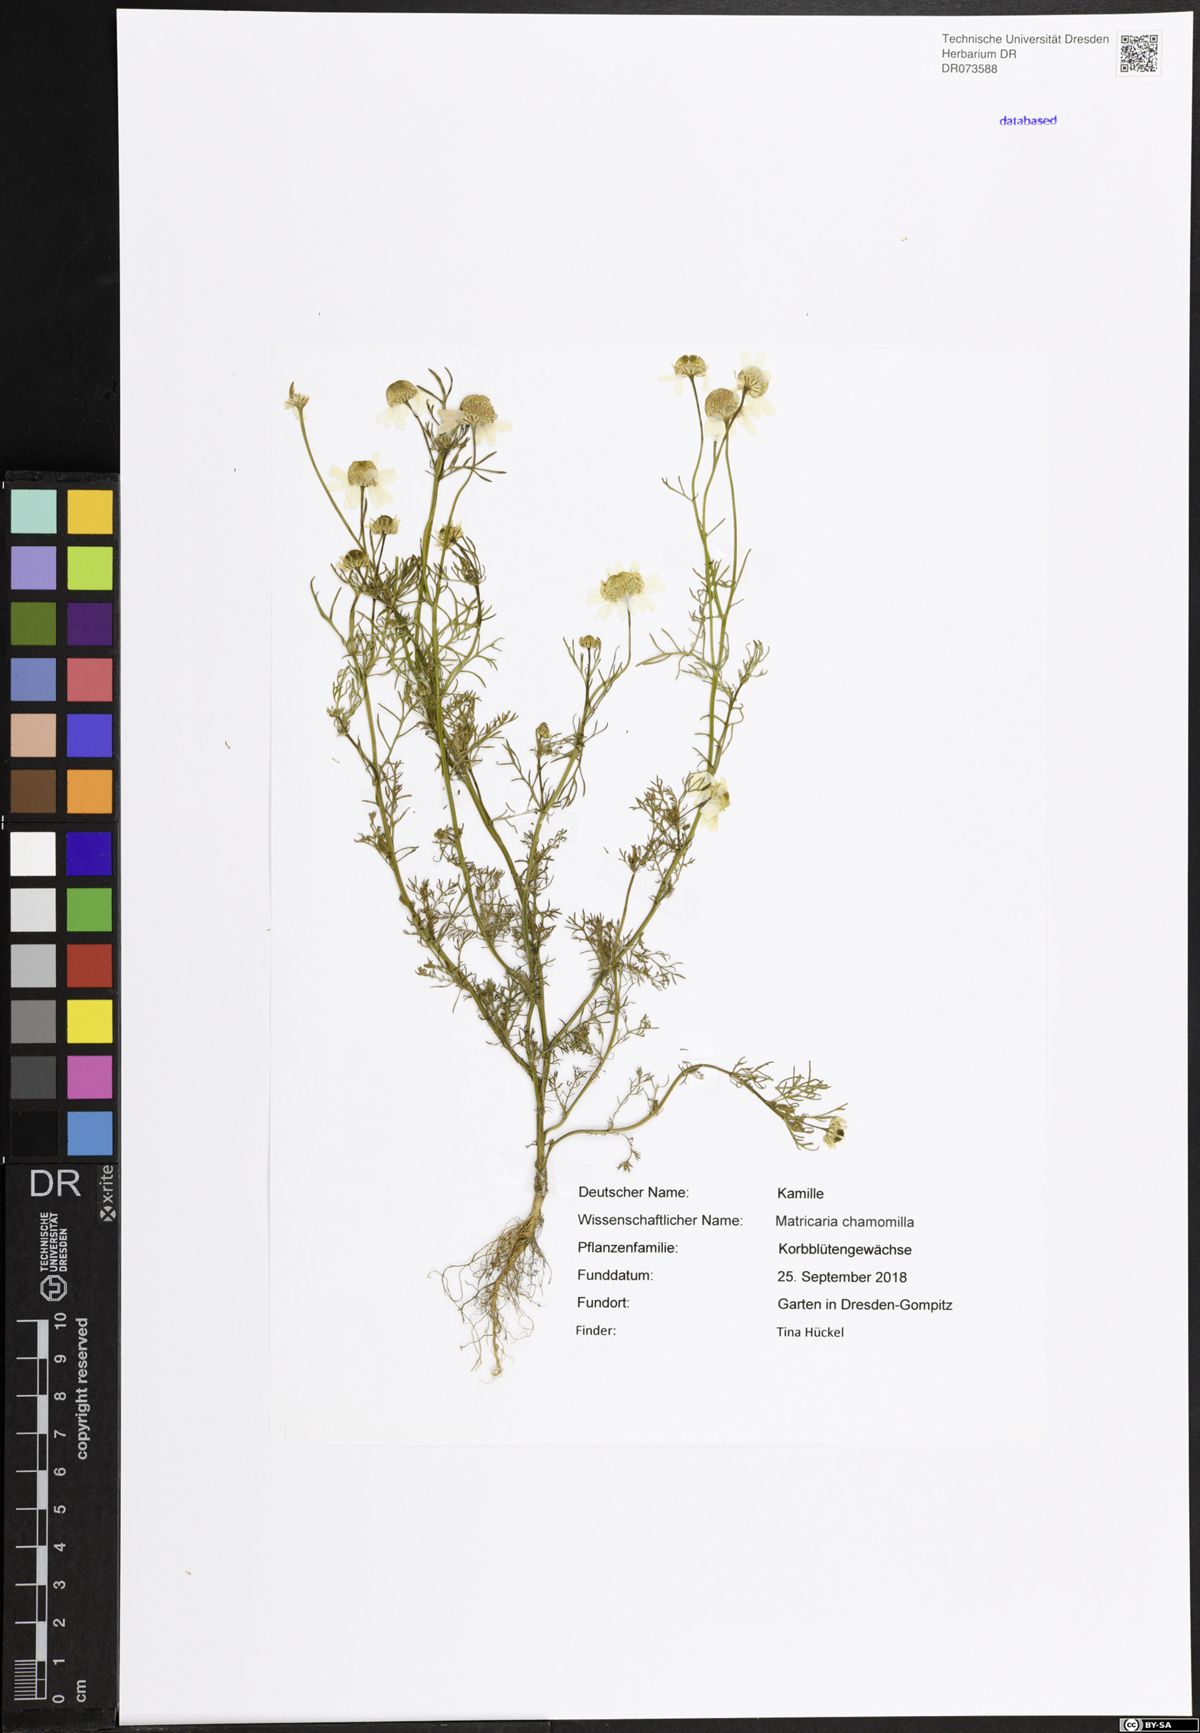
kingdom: Plantae
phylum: Tracheophyta
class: Magnoliopsida
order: Asterales
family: Asteraceae
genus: Matricaria
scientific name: Matricaria chamomilla
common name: Scented mayweed
